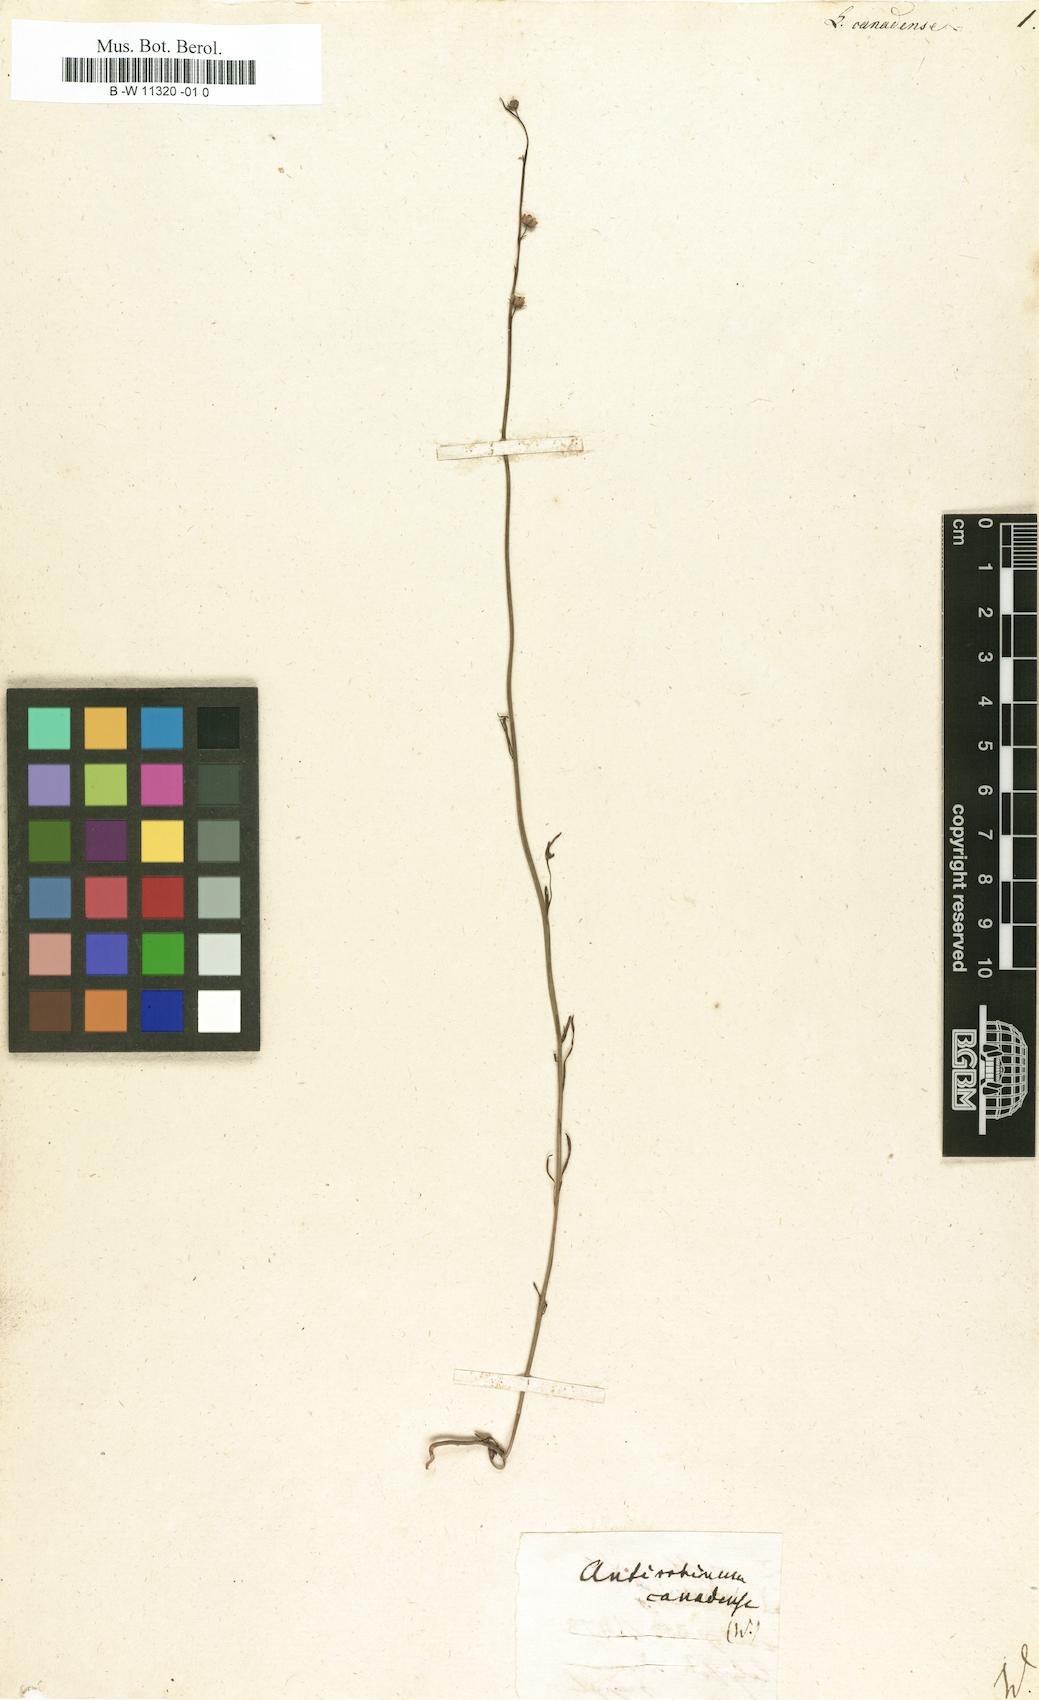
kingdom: Plantae
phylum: Tracheophyta
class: Magnoliopsida
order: Lamiales
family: Plantaginaceae
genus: Nuttallanthus
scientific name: Nuttallanthus canadensis
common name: Blue toadflax
